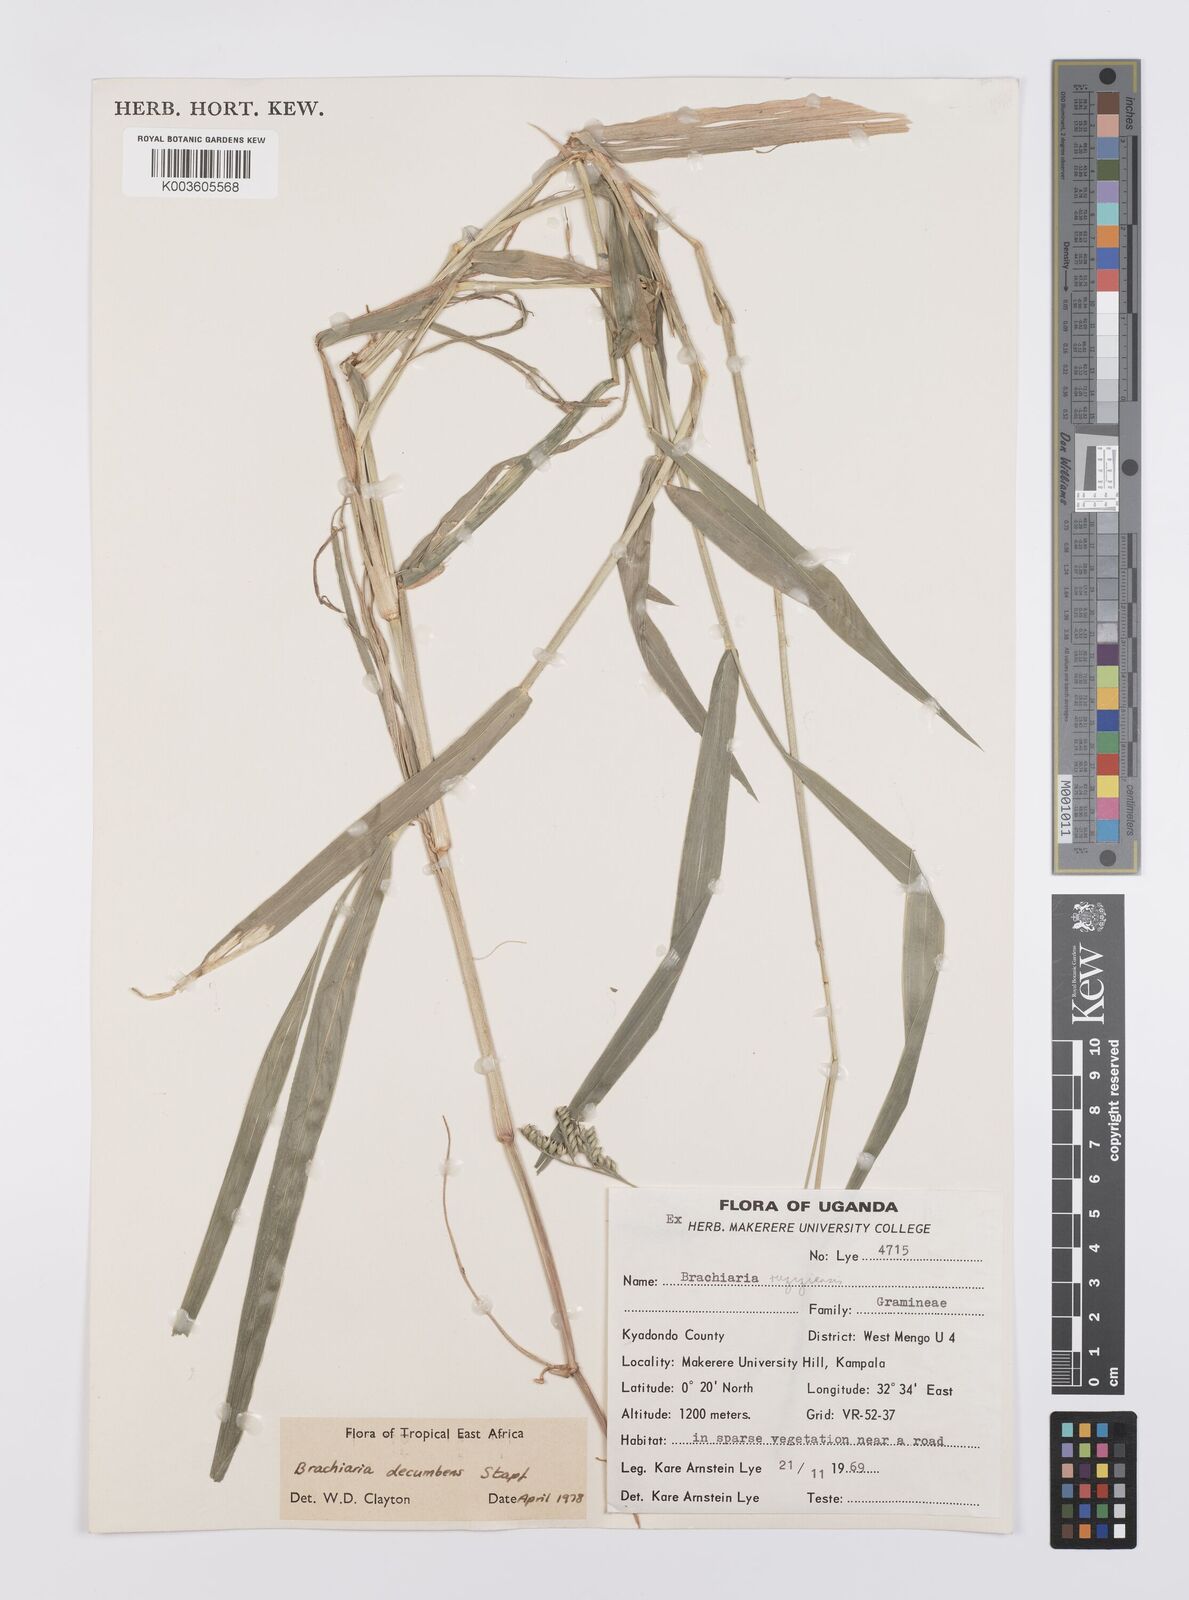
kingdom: Plantae
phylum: Tracheophyta
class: Liliopsida
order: Poales
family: Poaceae
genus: Urochloa
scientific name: Urochloa eminii
